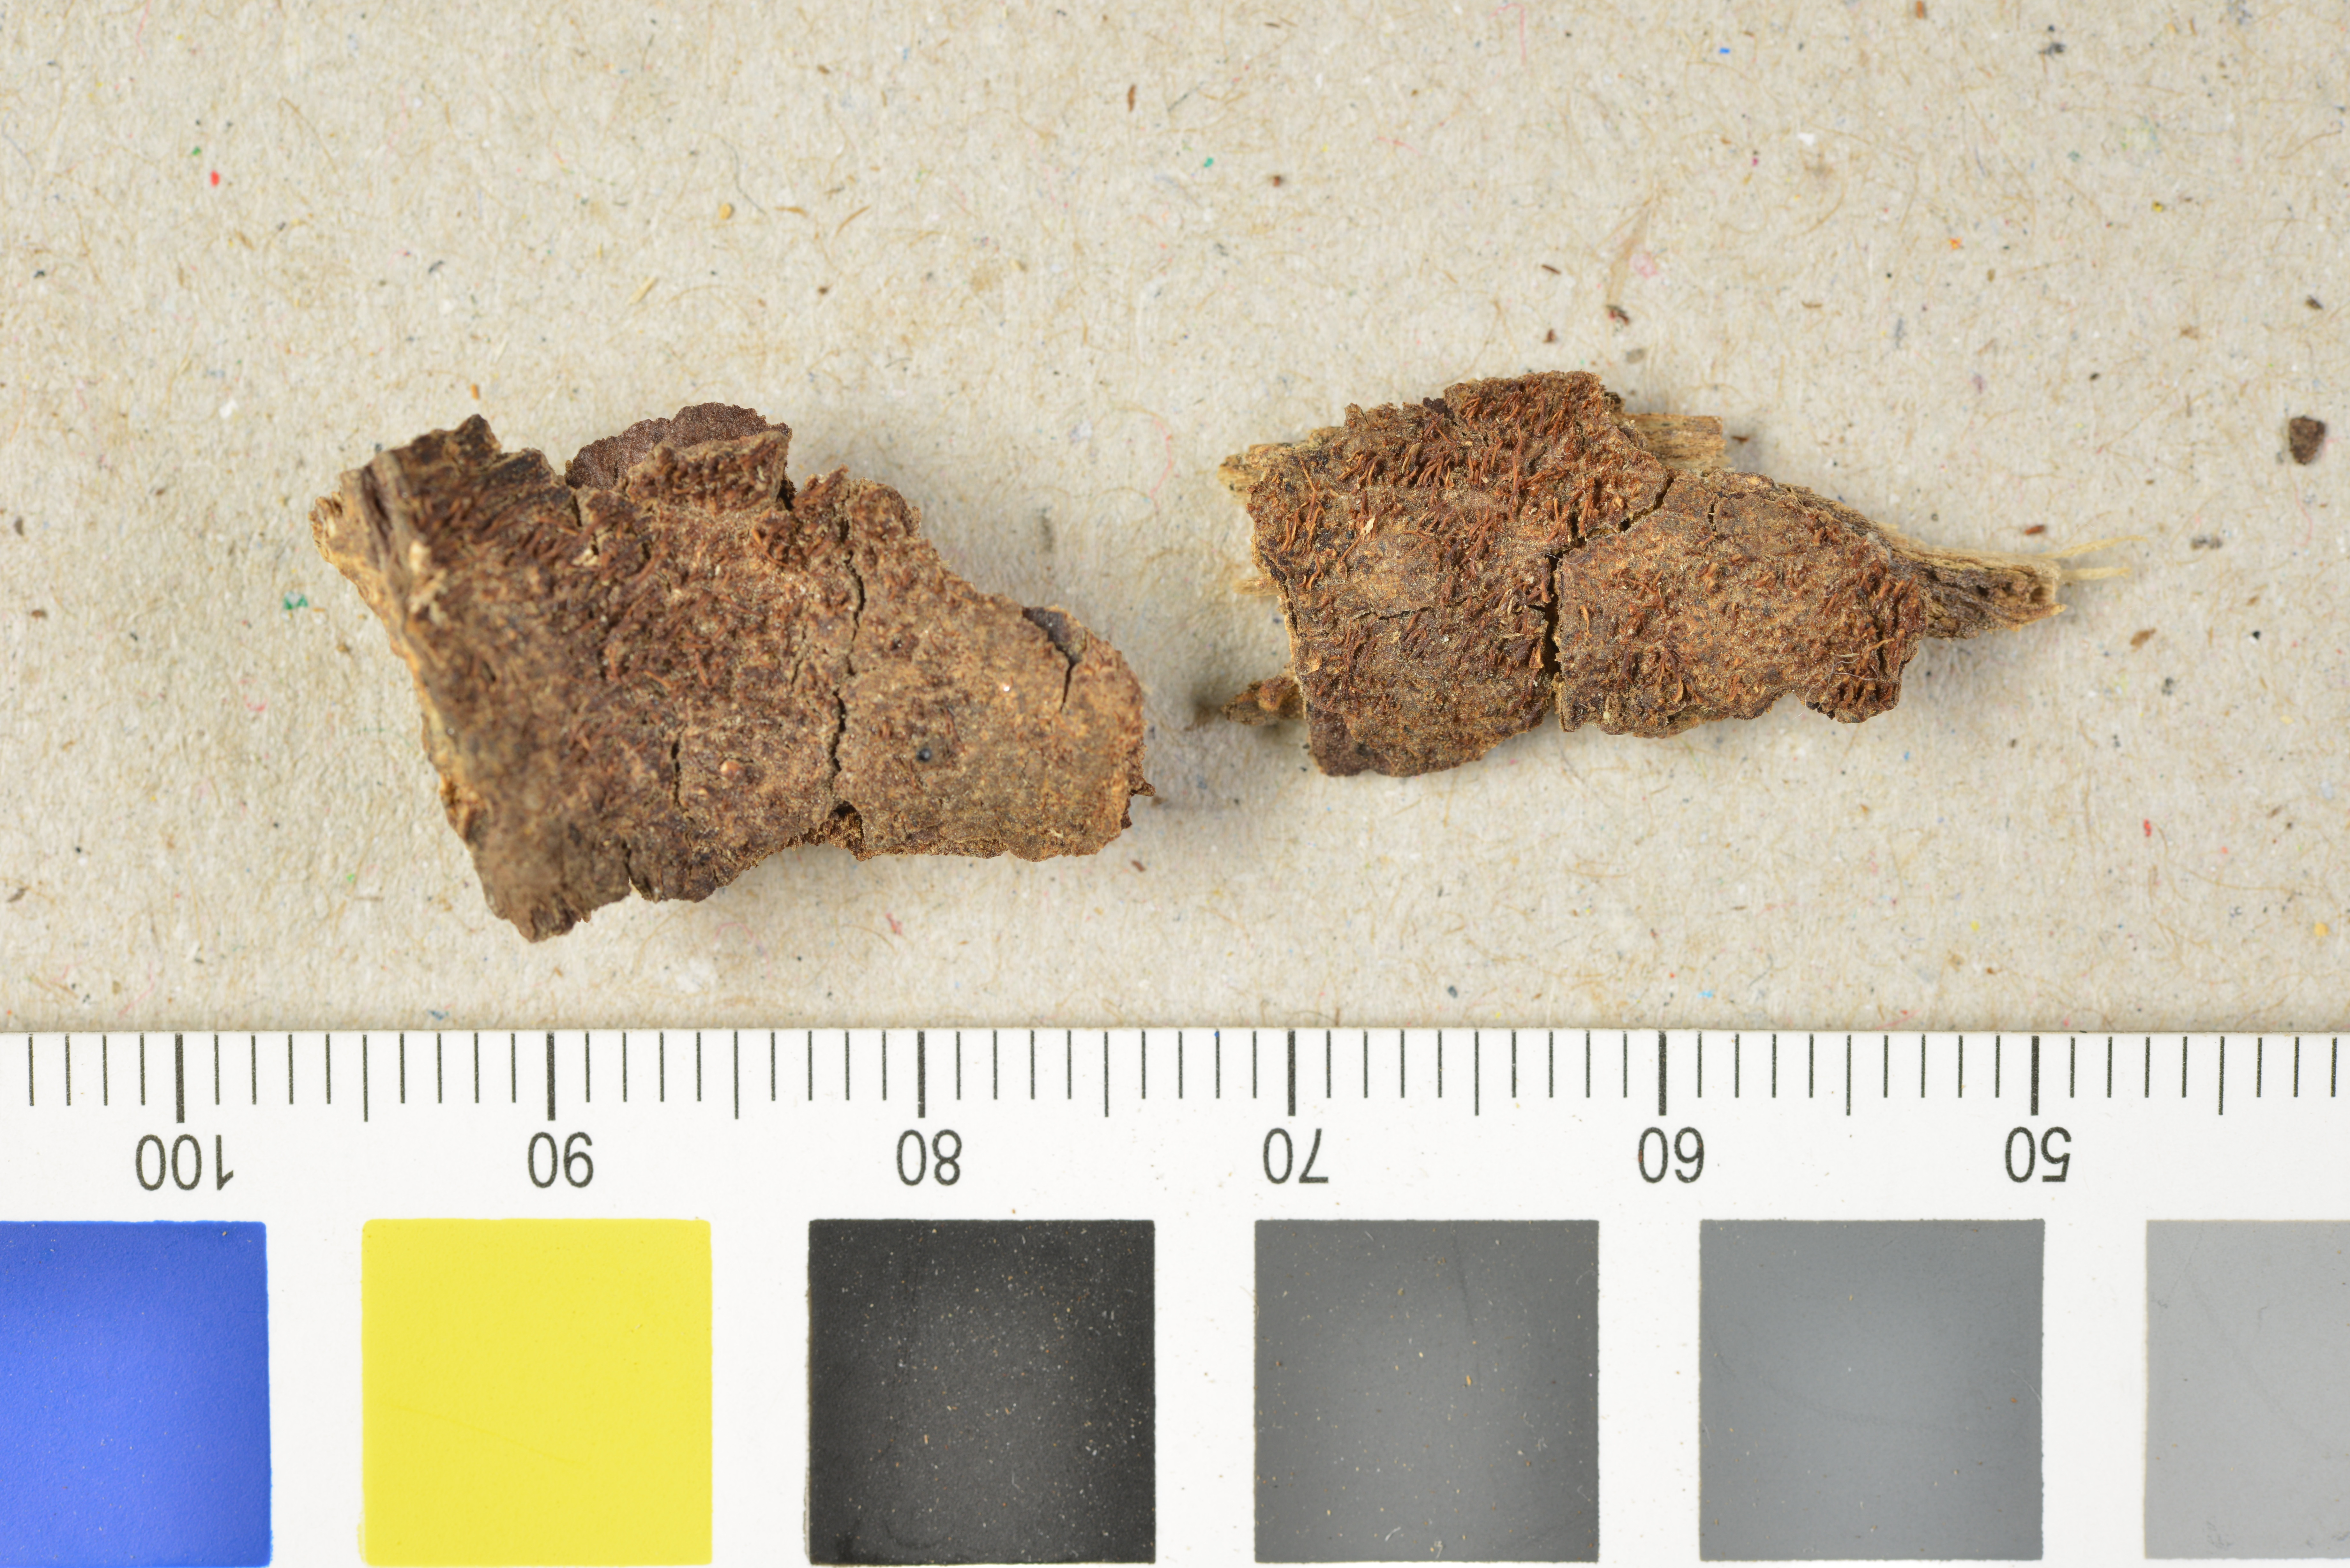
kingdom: Fungi
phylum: Basidiomycota
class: Agaricomycetes
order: Hymenochaetales
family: Hymenochaetaceae
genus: Hydnochaete
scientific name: Hydnochaete cinnamomea
